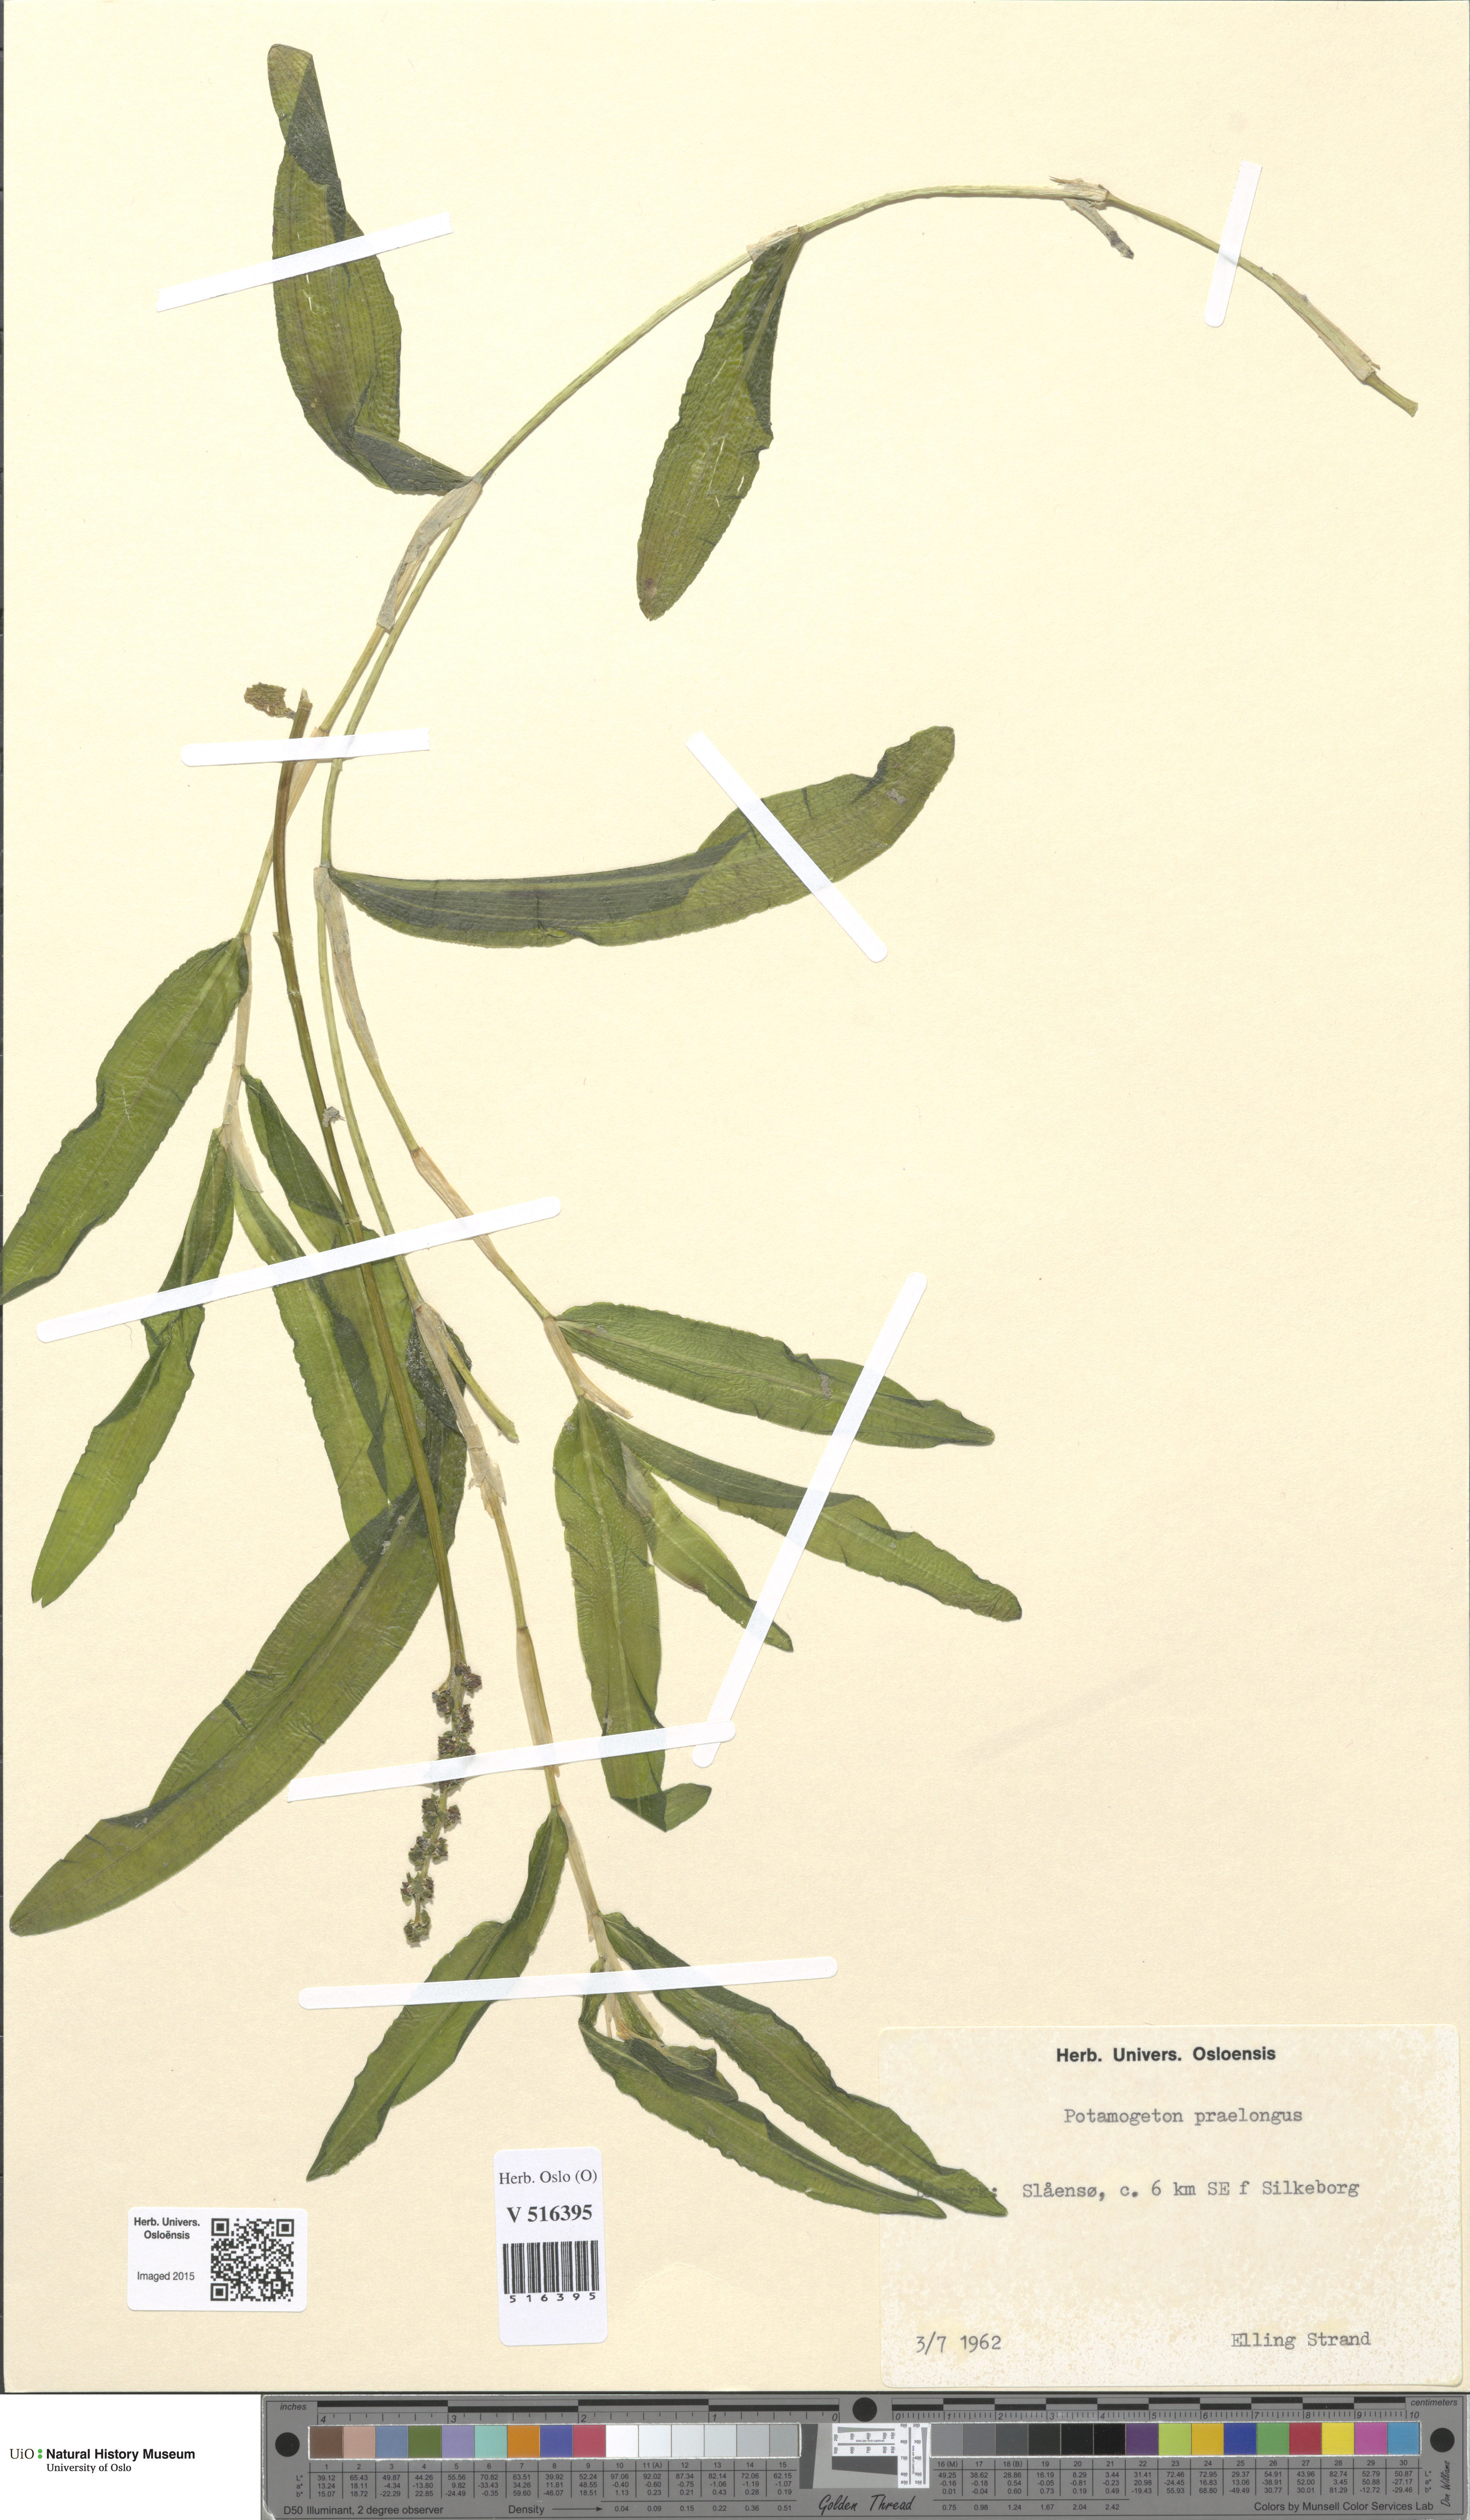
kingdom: Plantae
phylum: Tracheophyta
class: Liliopsida
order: Alismatales
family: Potamogetonaceae
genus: Potamogeton
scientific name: Potamogeton praelongus
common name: Long-stalked pondweed
